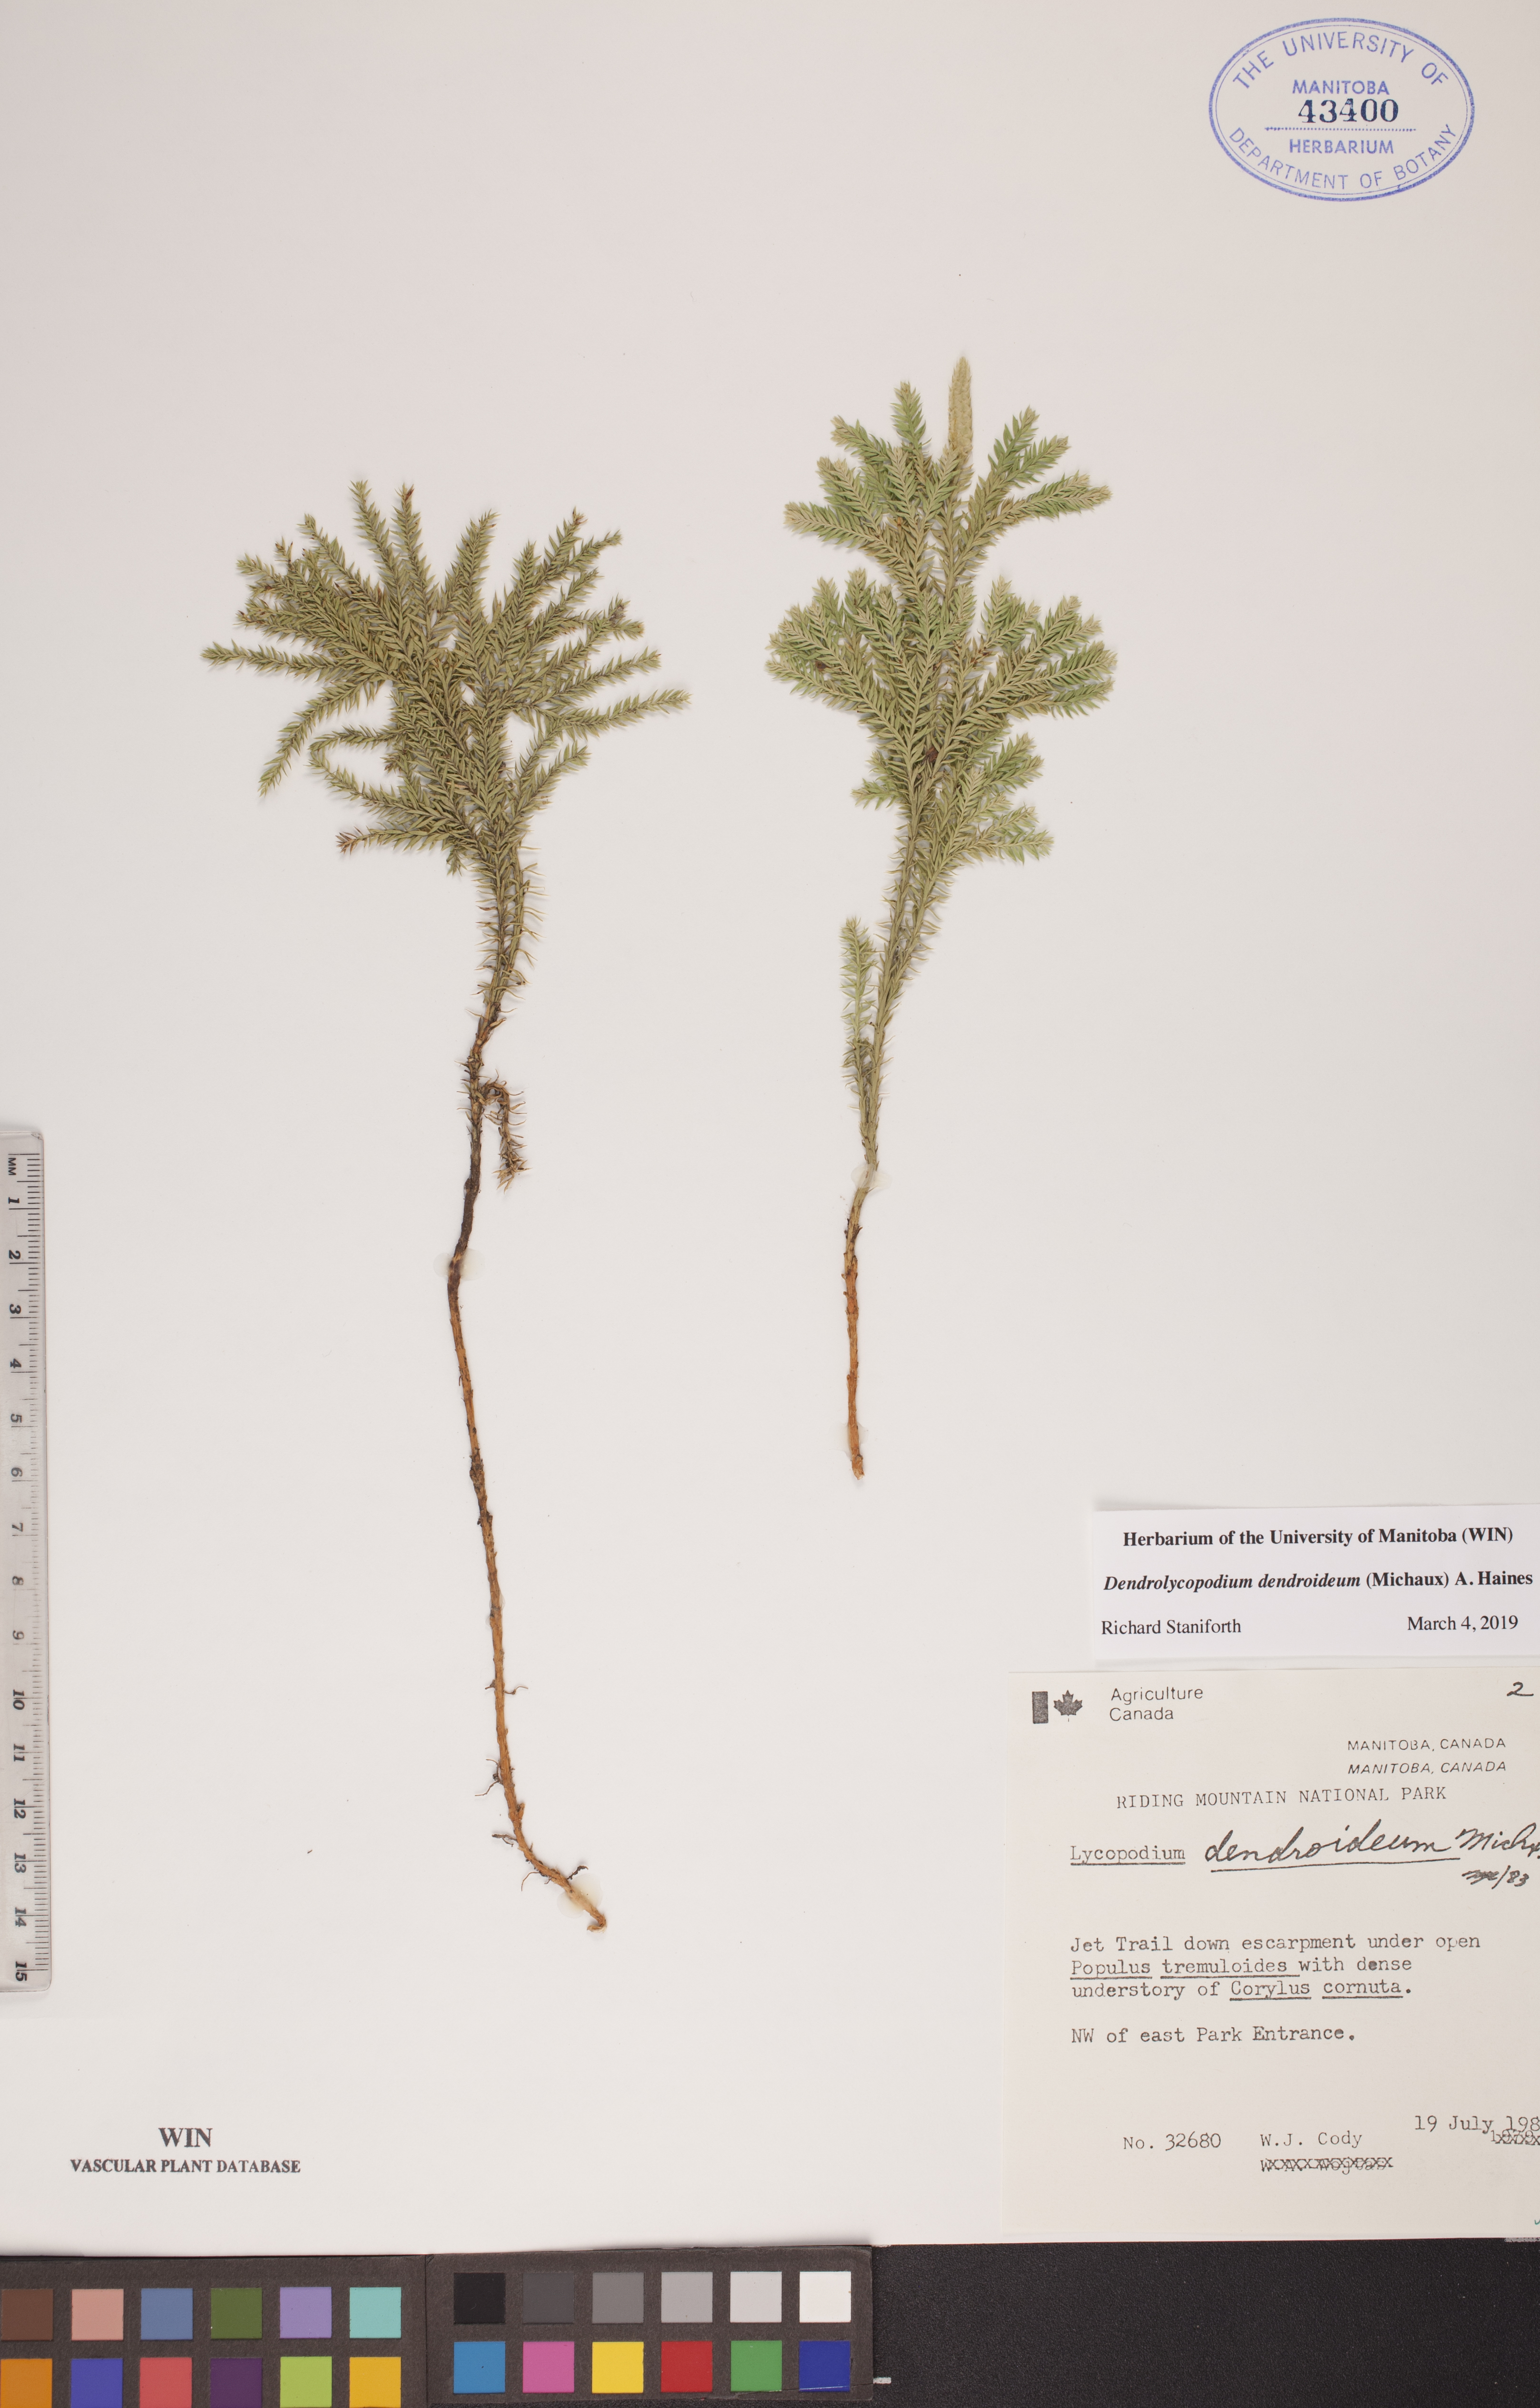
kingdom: Plantae
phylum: Tracheophyta
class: Lycopodiopsida
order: Lycopodiales
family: Lycopodiaceae
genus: Dendrolycopodium
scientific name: Dendrolycopodium dendroideum
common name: Northern tree-clubmoss
